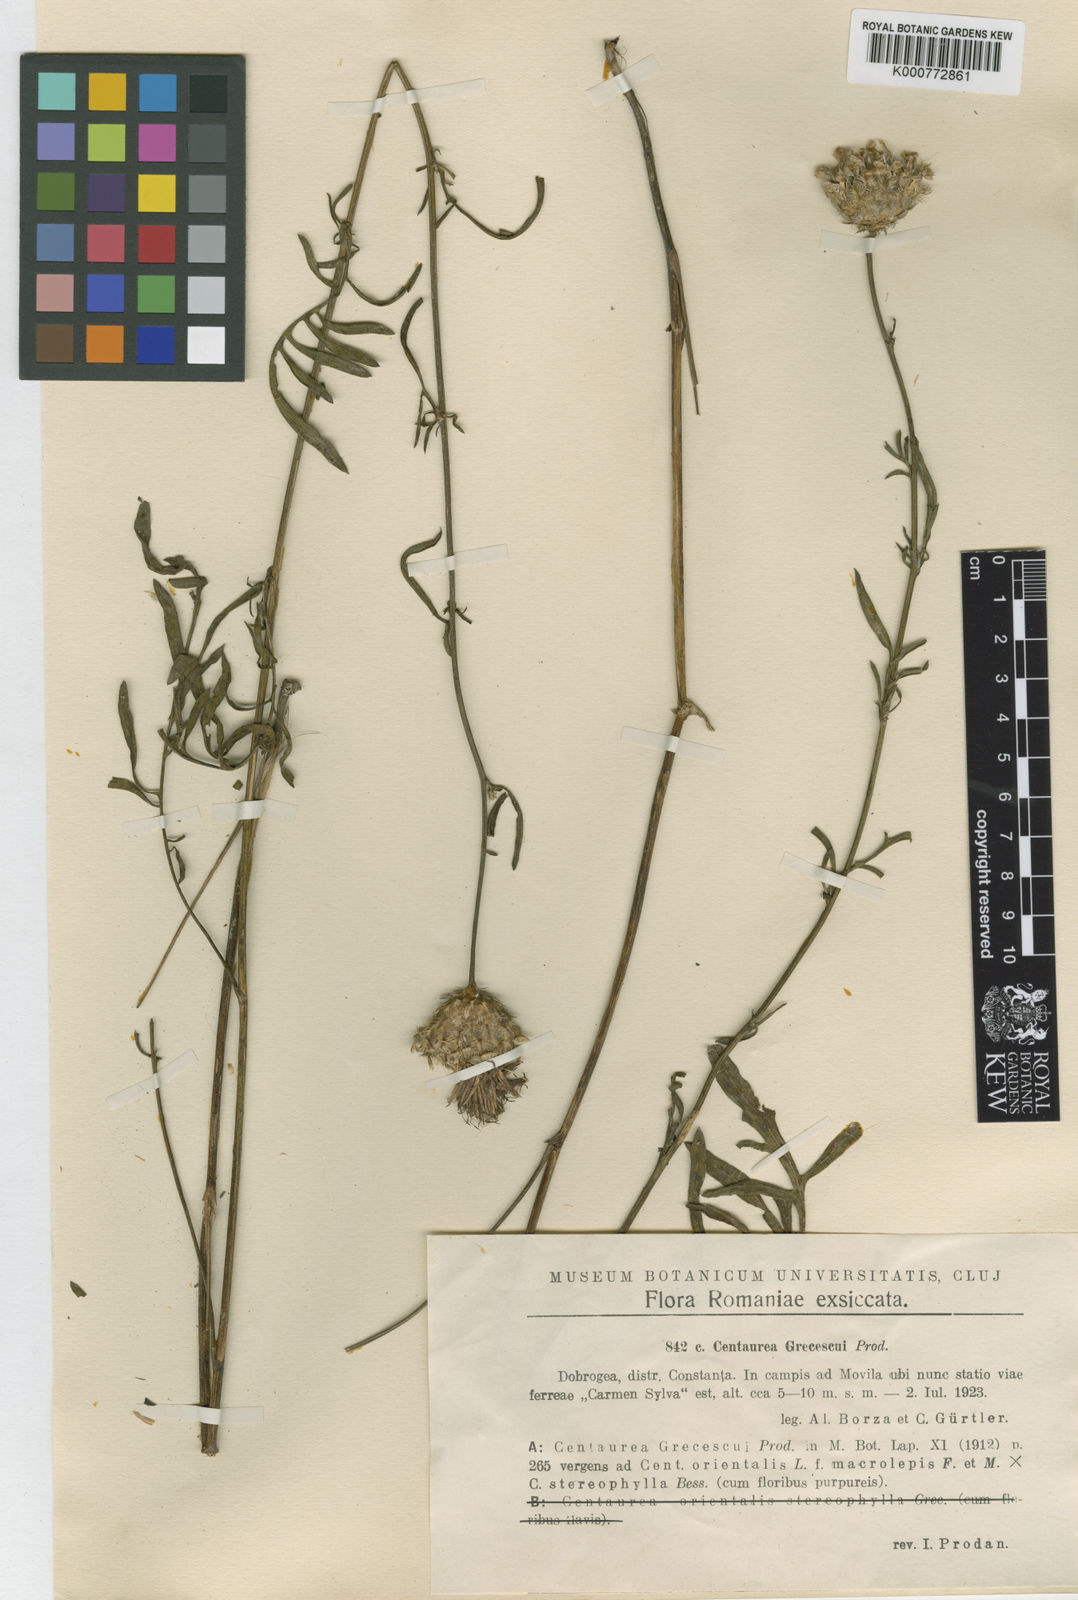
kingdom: Plantae
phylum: Tracheophyta
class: Magnoliopsida
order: Asterales
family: Asteraceae
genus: Centaurea
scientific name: Centaurea grecescui
